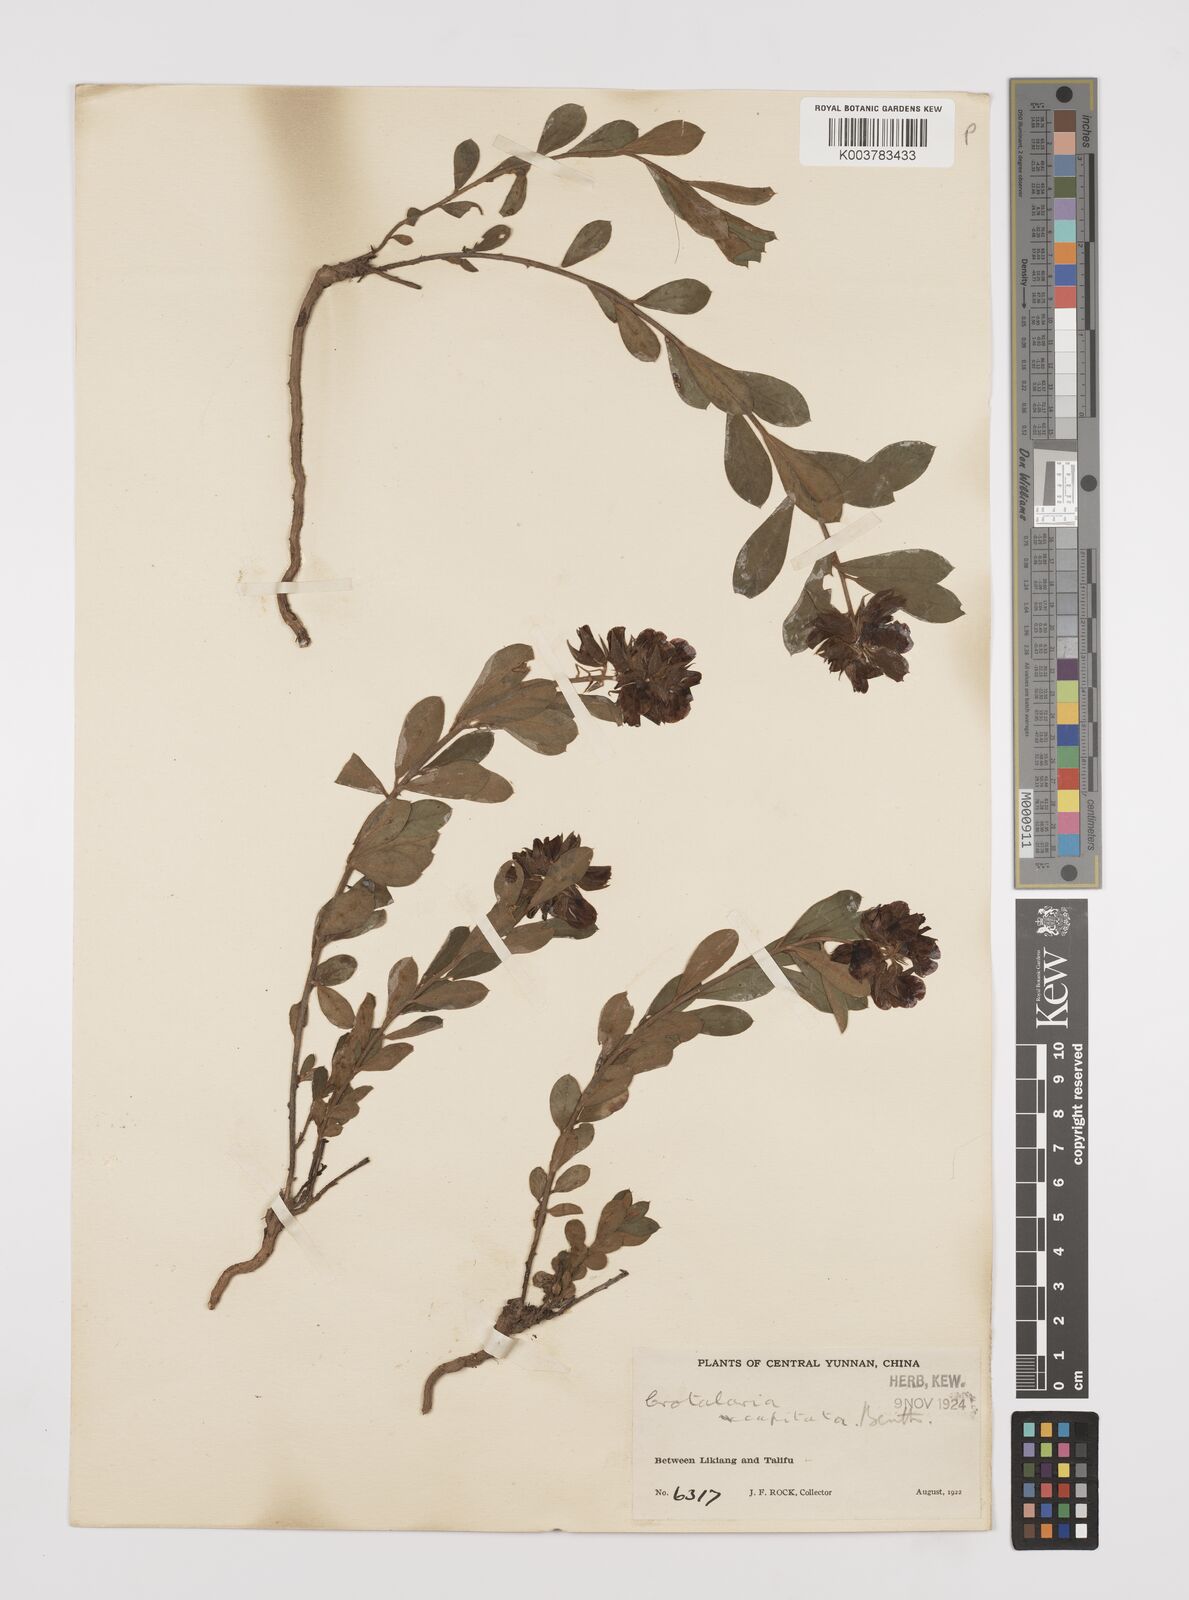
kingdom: Plantae
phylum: Tracheophyta
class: Magnoliopsida
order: Fabales
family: Fabaceae
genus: Liparia
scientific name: Liparia capitata
